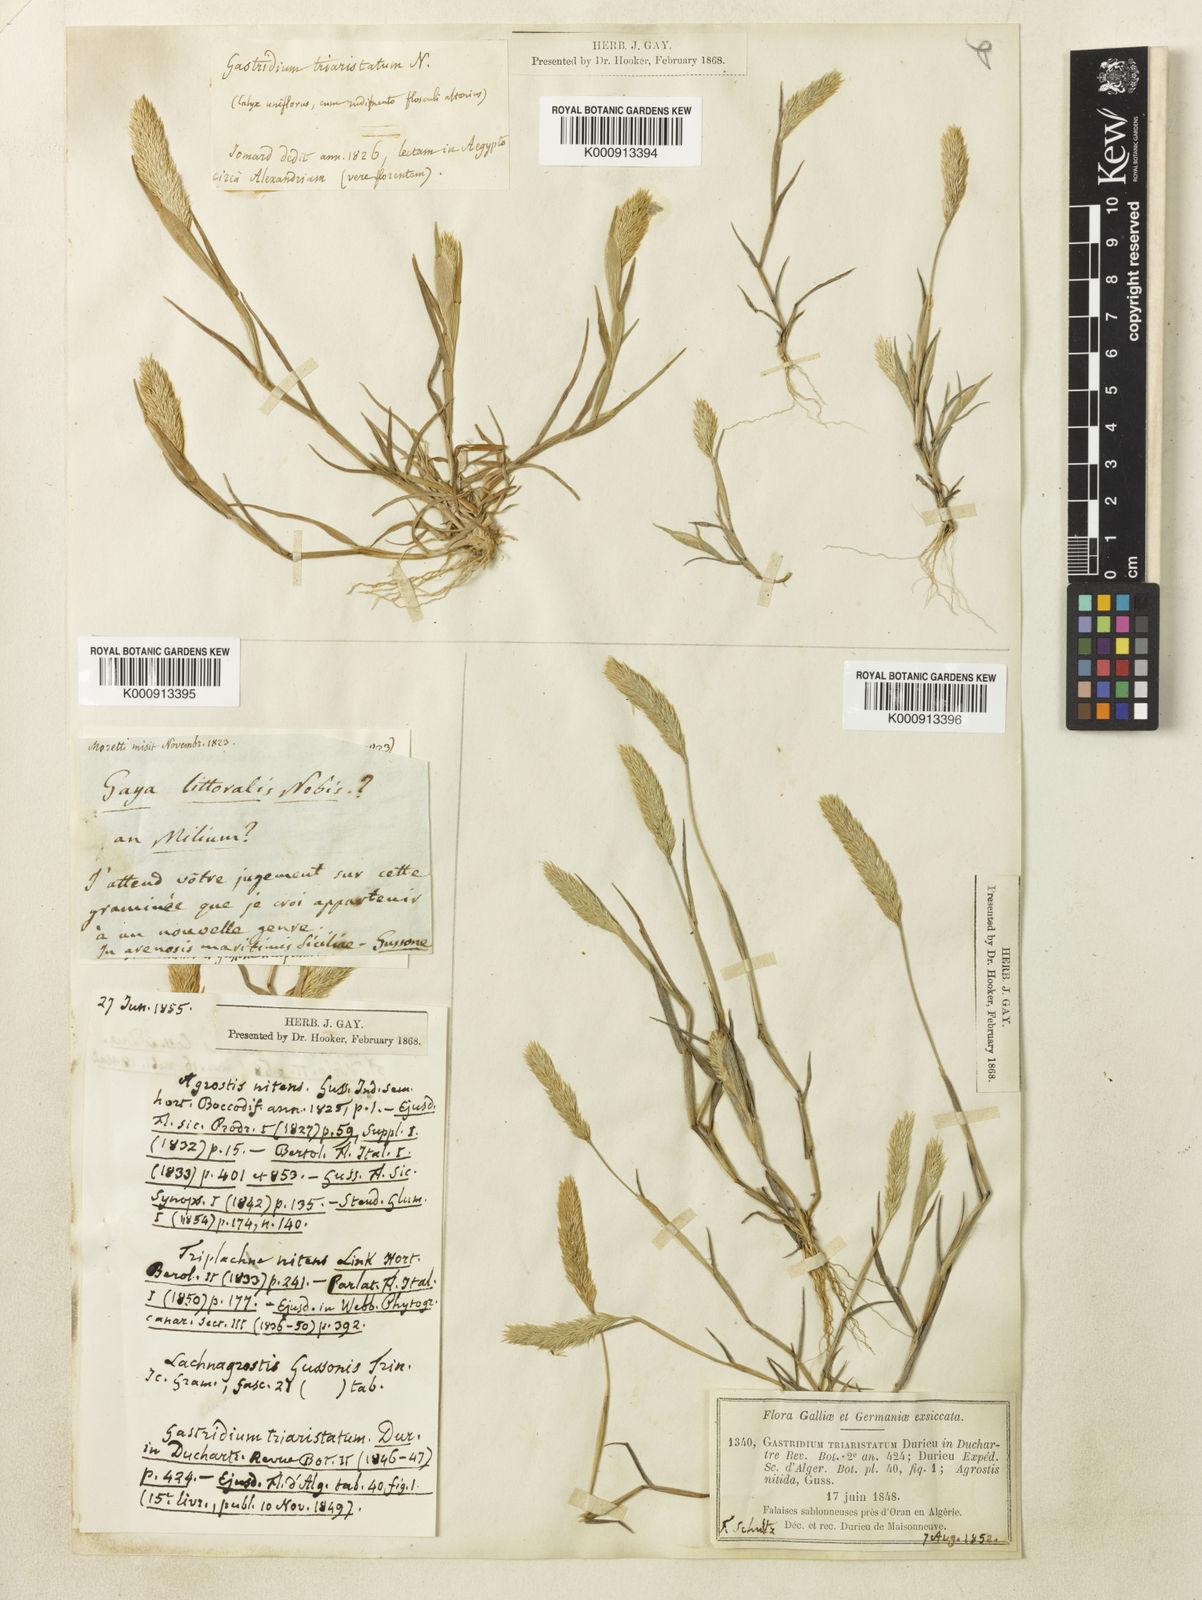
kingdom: Plantae
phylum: Tracheophyta
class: Liliopsida
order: Poales
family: Poaceae
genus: Triplachne
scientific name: Triplachne nitens
